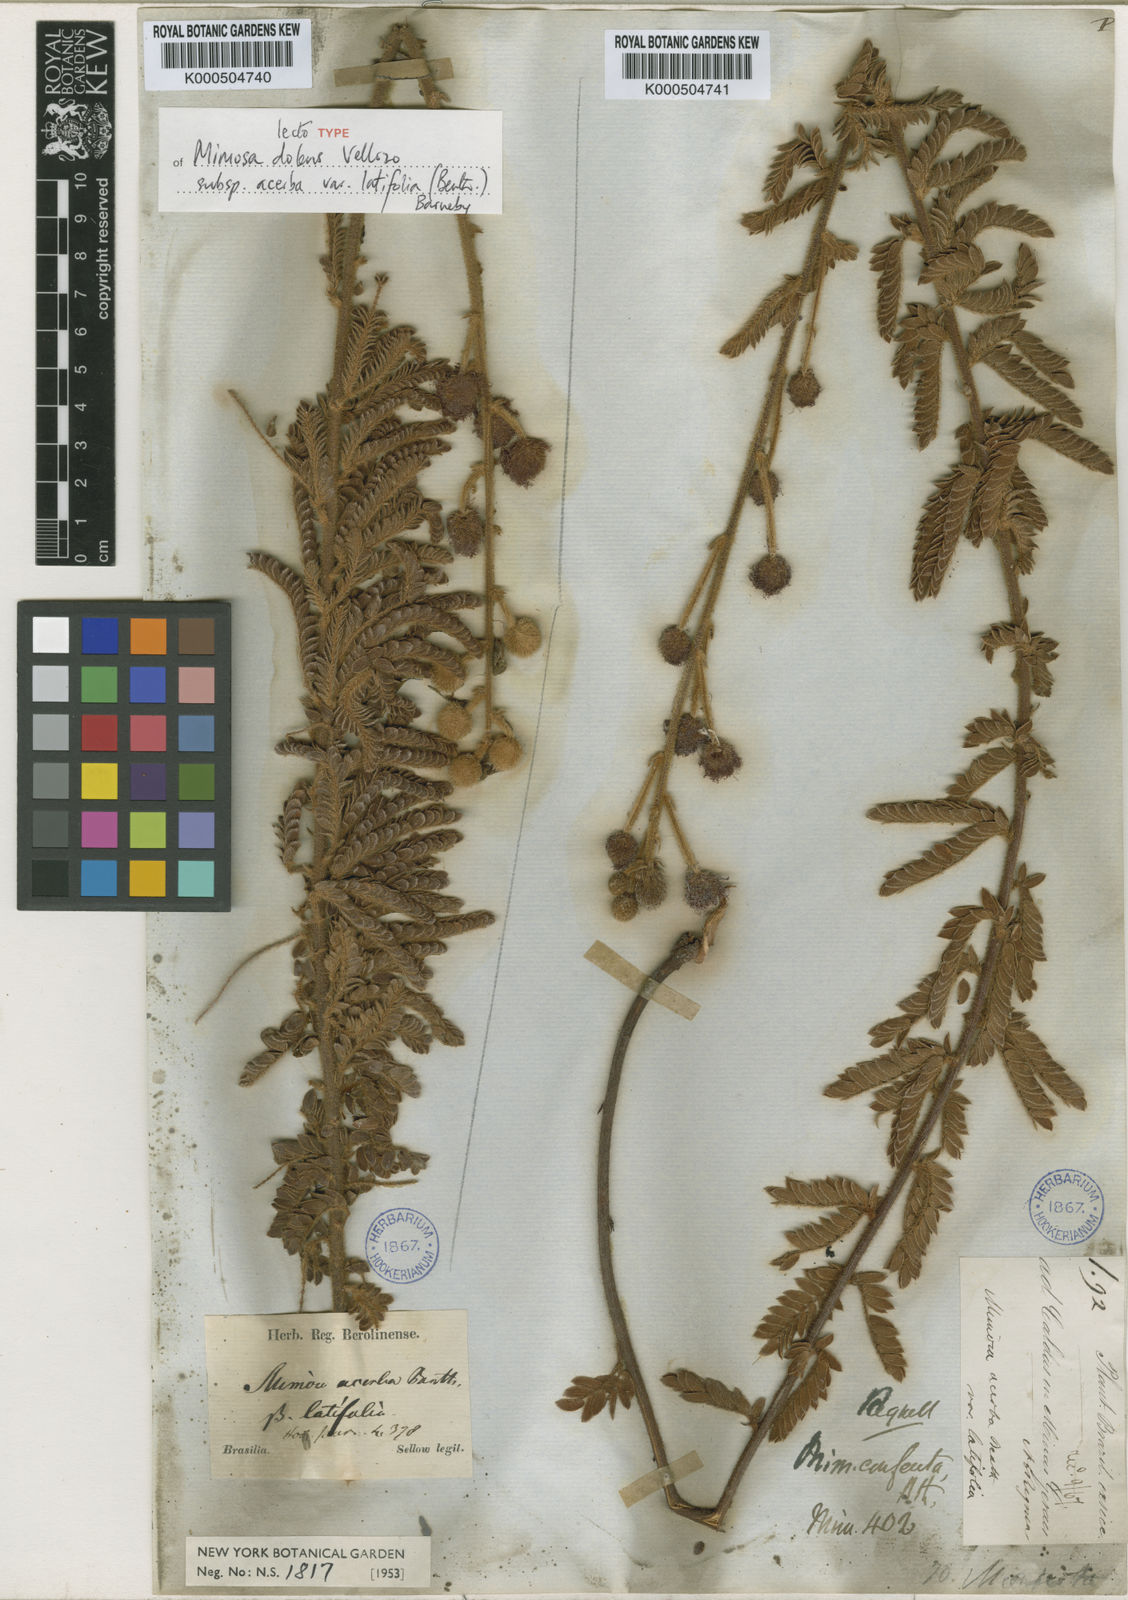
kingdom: Plantae
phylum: Tracheophyta
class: Magnoliopsida
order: Fabales
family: Fabaceae
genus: Mimosa
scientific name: Mimosa dolens
